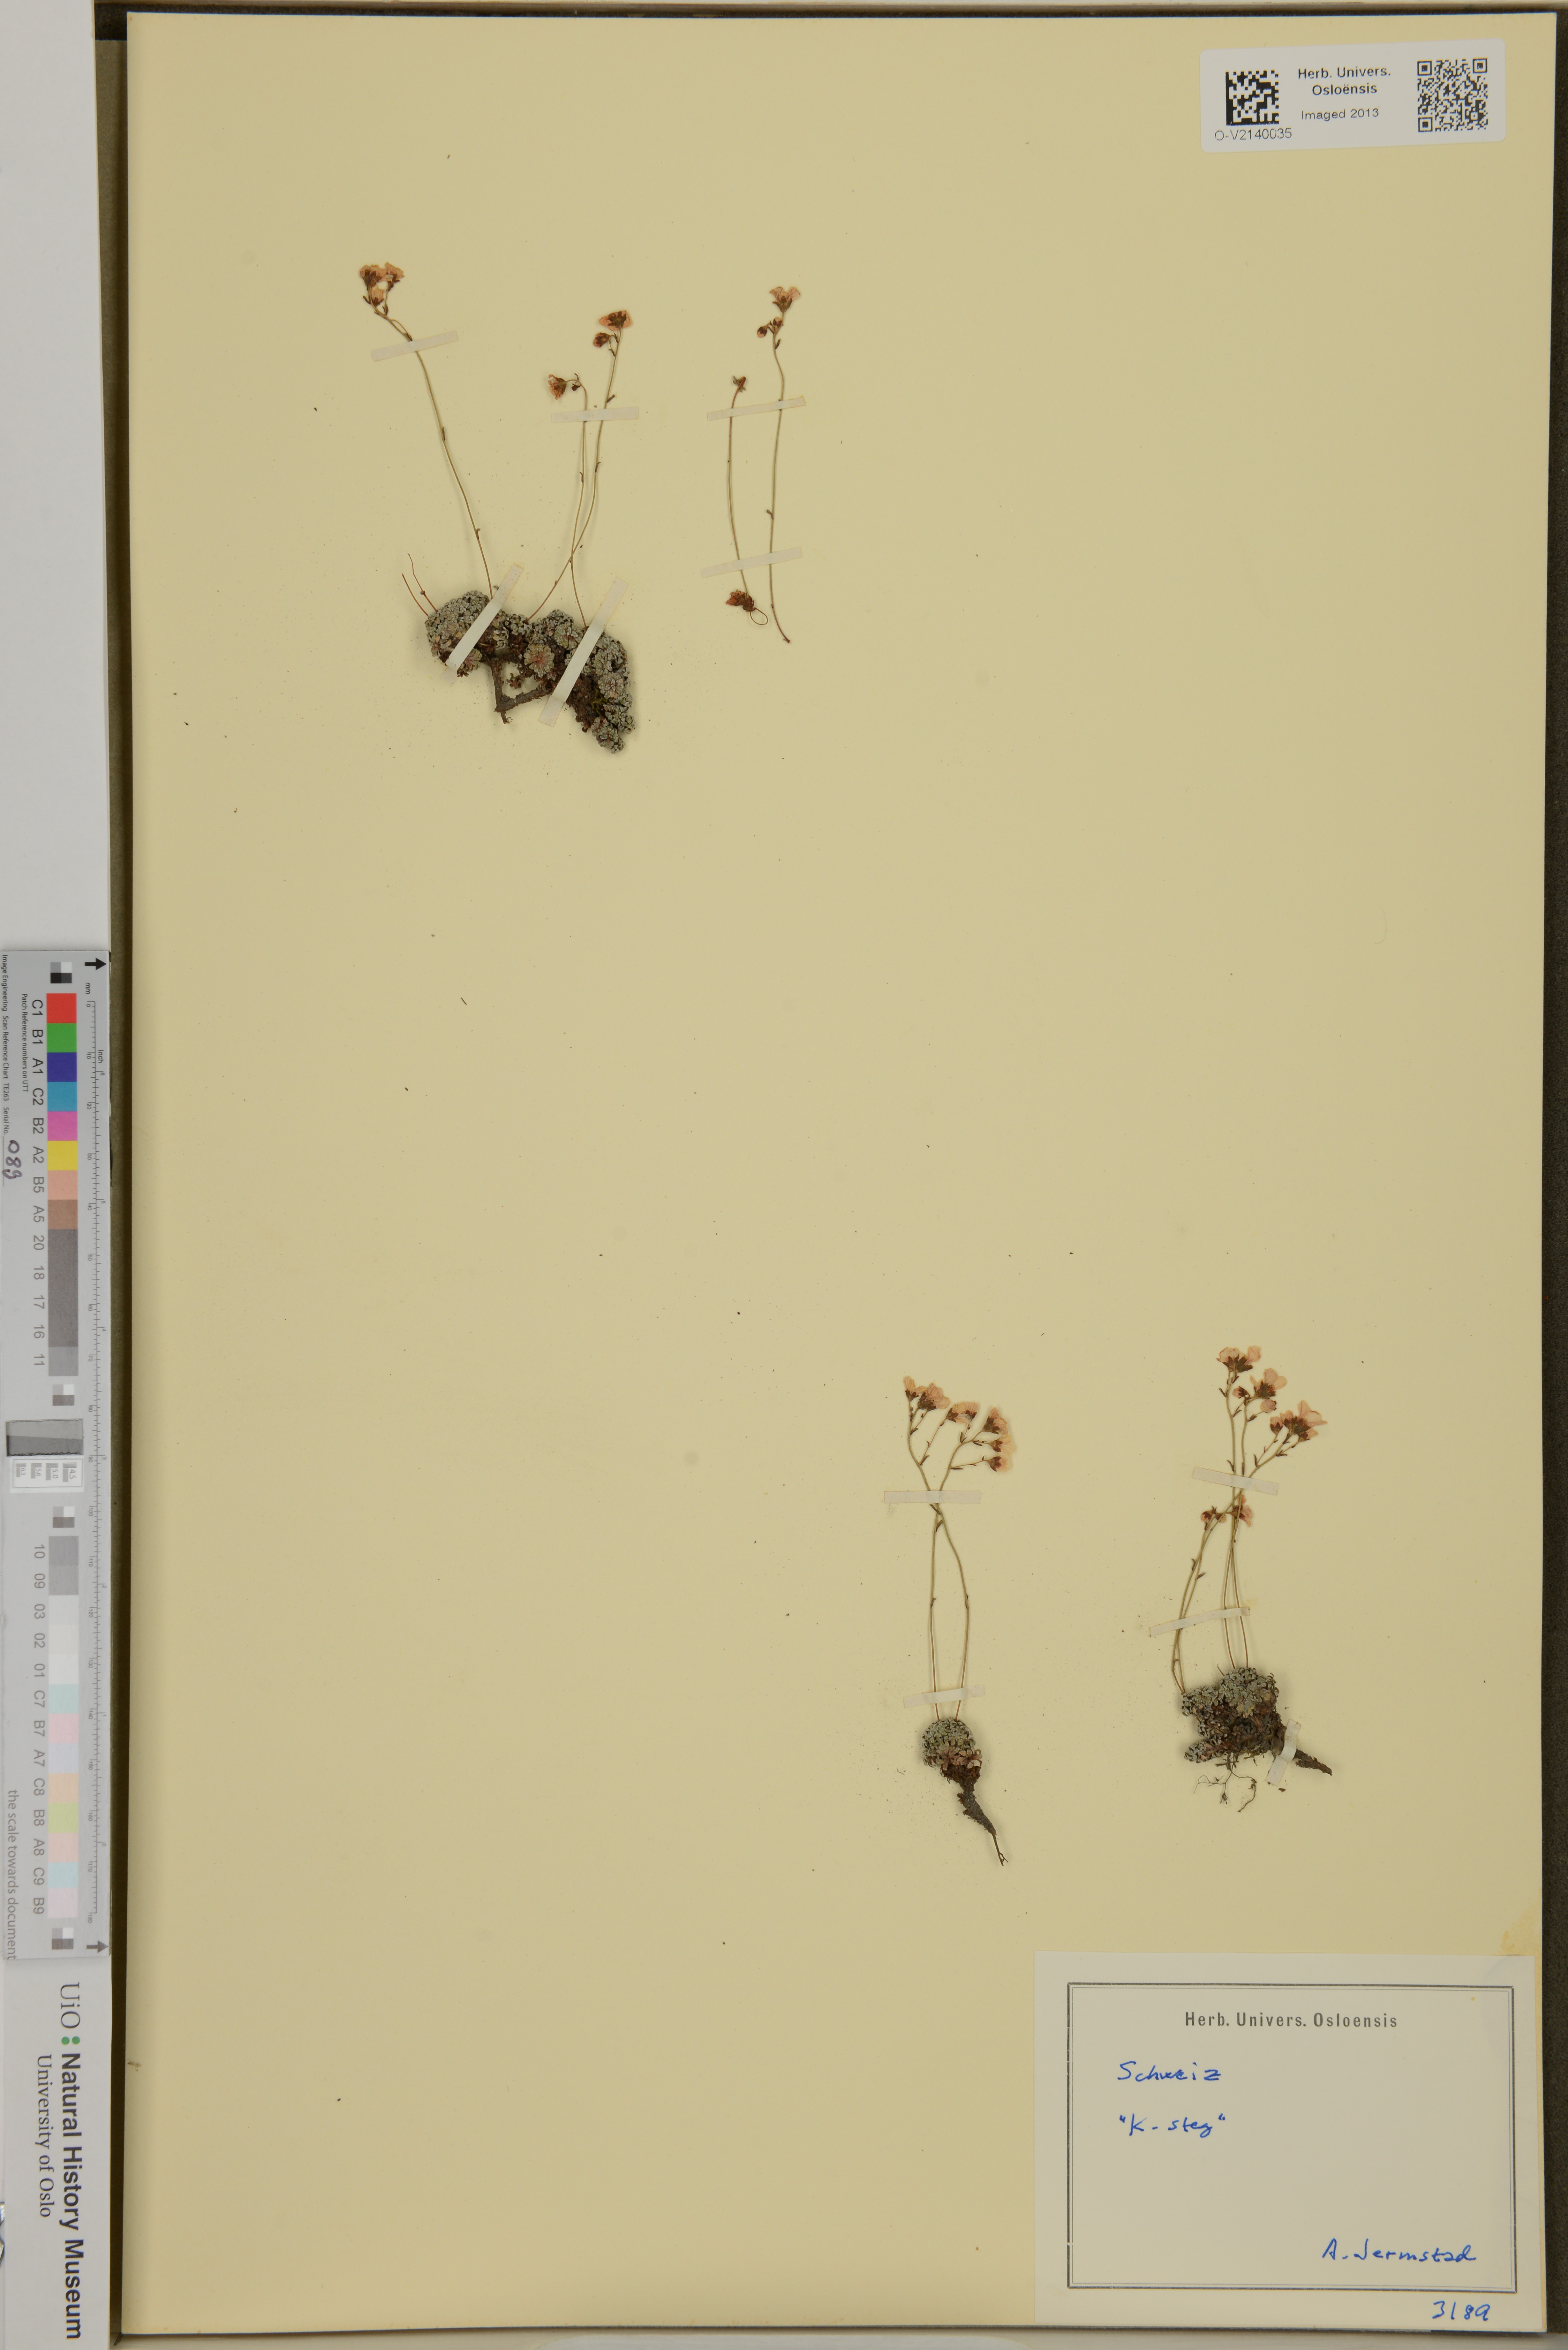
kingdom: Plantae
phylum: Tracheophyta
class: Magnoliopsida
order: Saxifragales
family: Saxifragaceae
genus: Saxifraga
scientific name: Saxifraga
